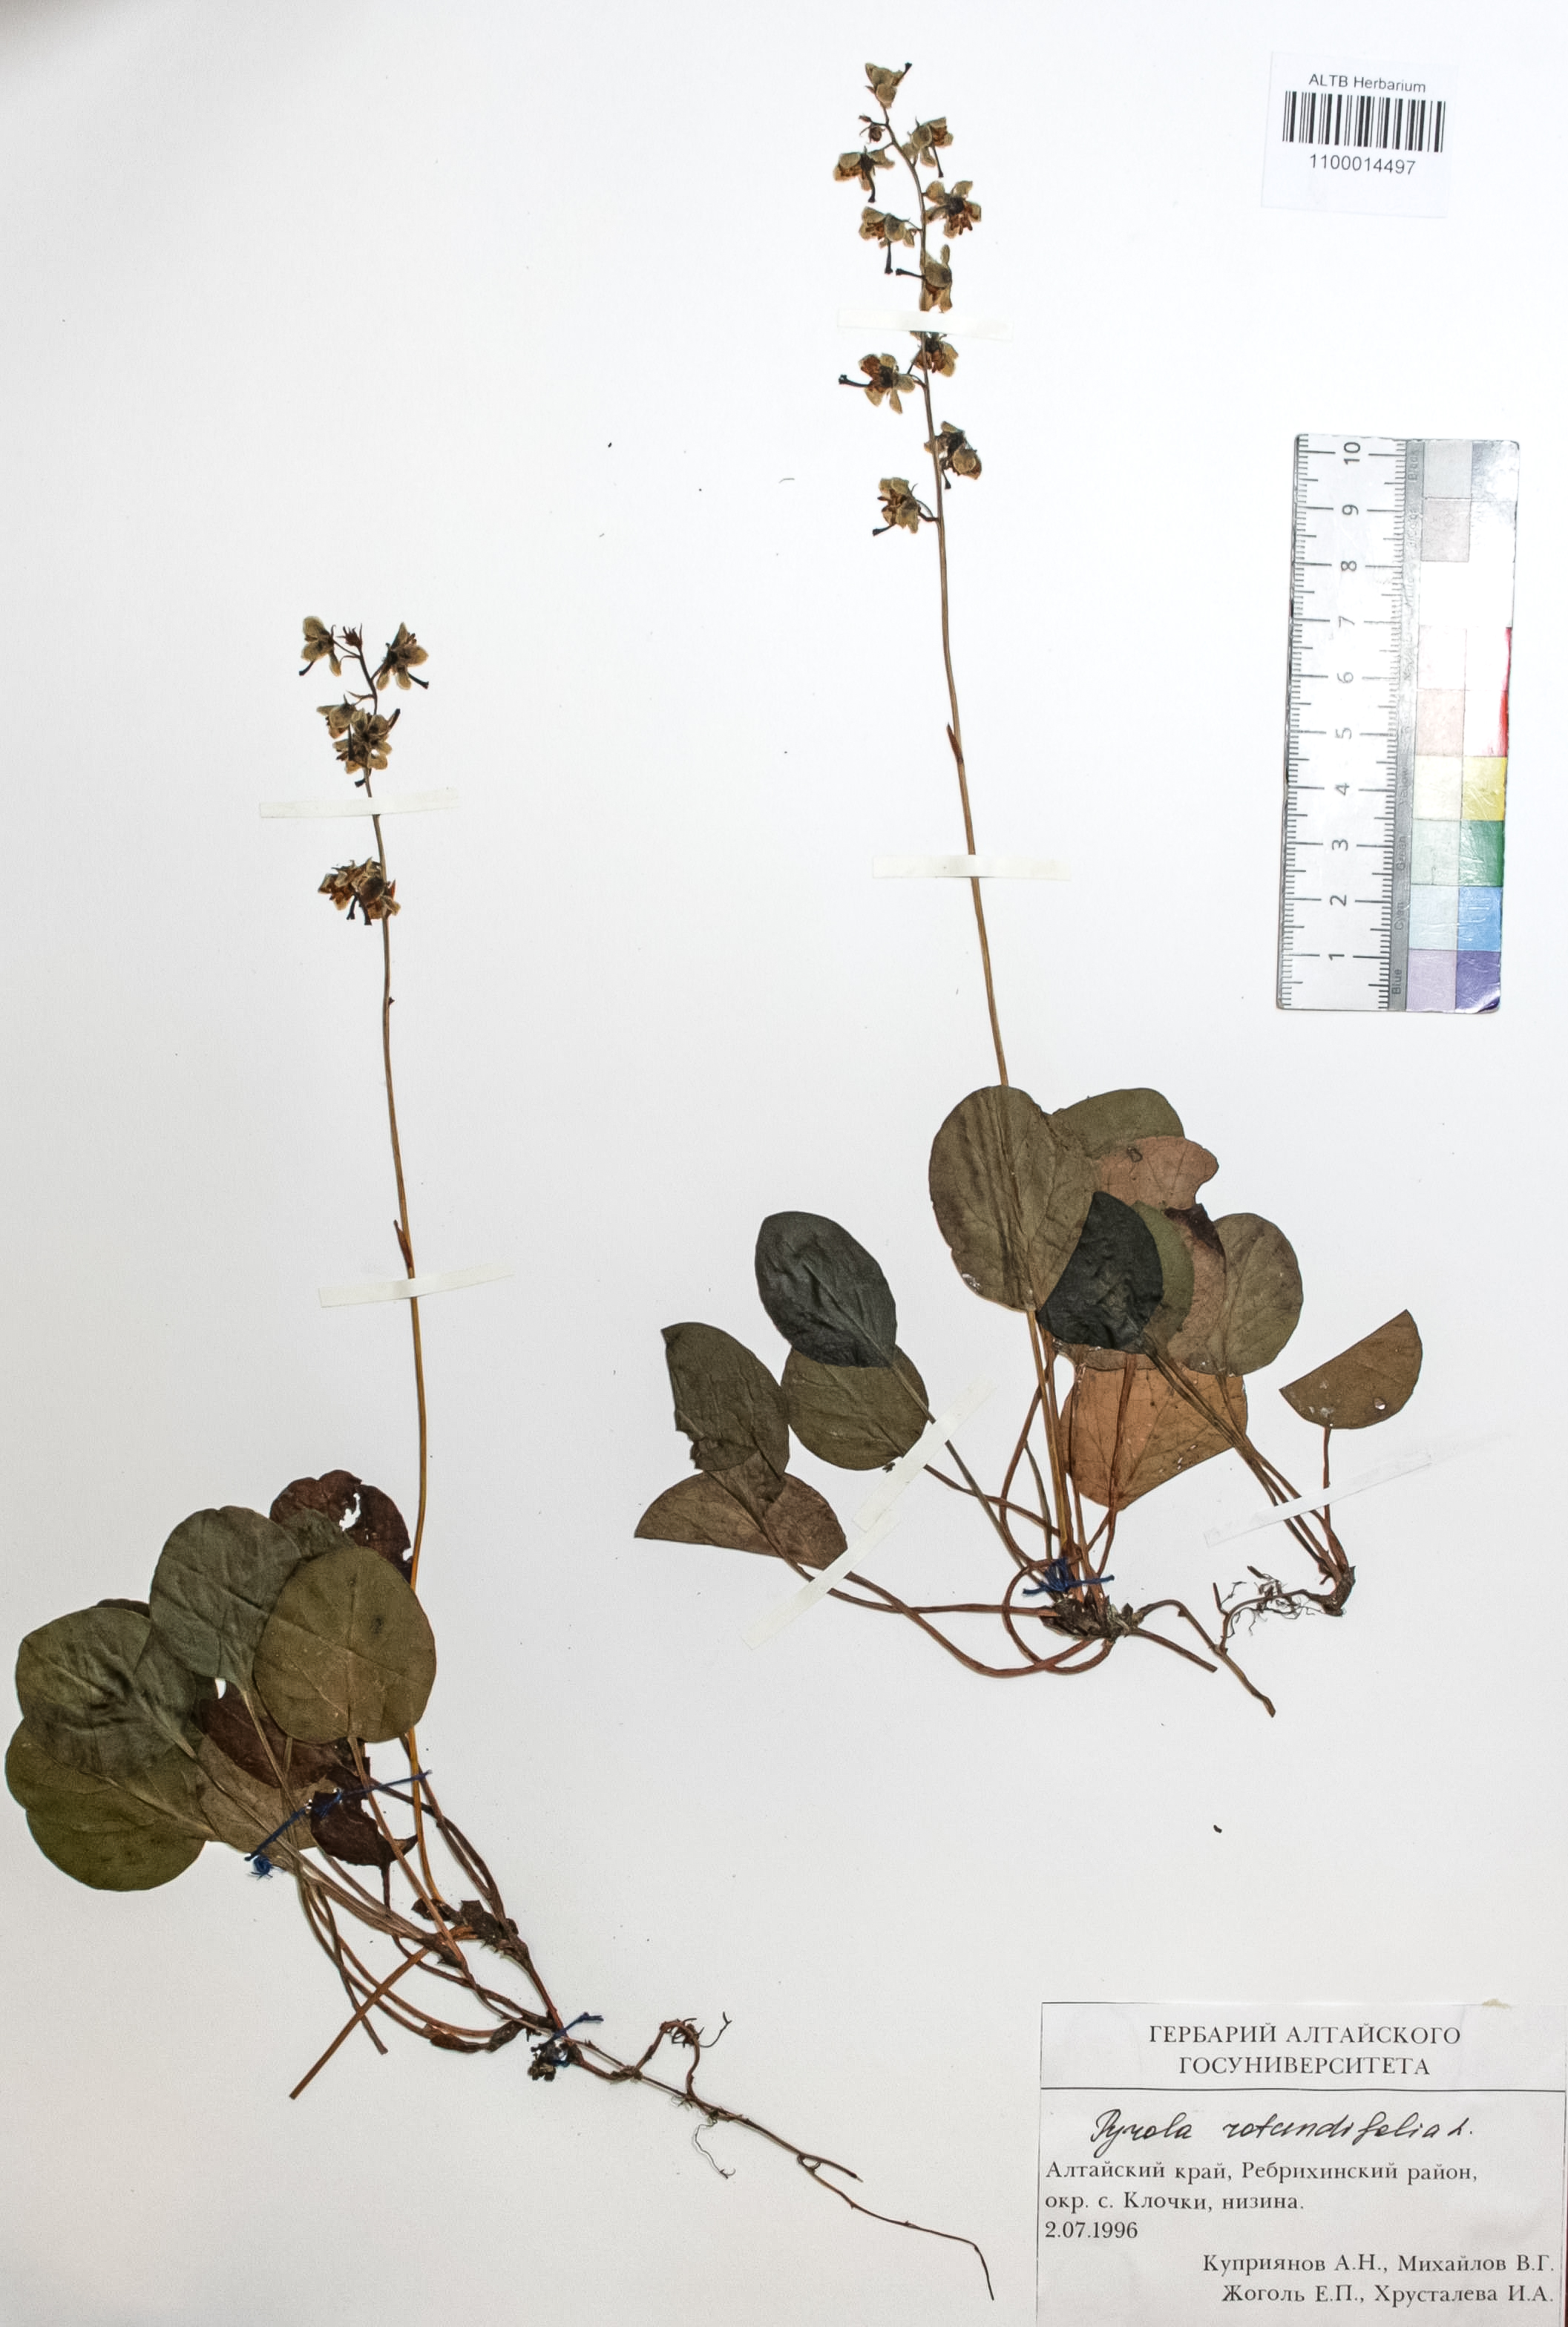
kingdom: Plantae
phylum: Tracheophyta
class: Magnoliopsida
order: Ericales
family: Ericaceae
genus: Pyrola
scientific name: Pyrola rotundifolia
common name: Round-leaved wintergreen
